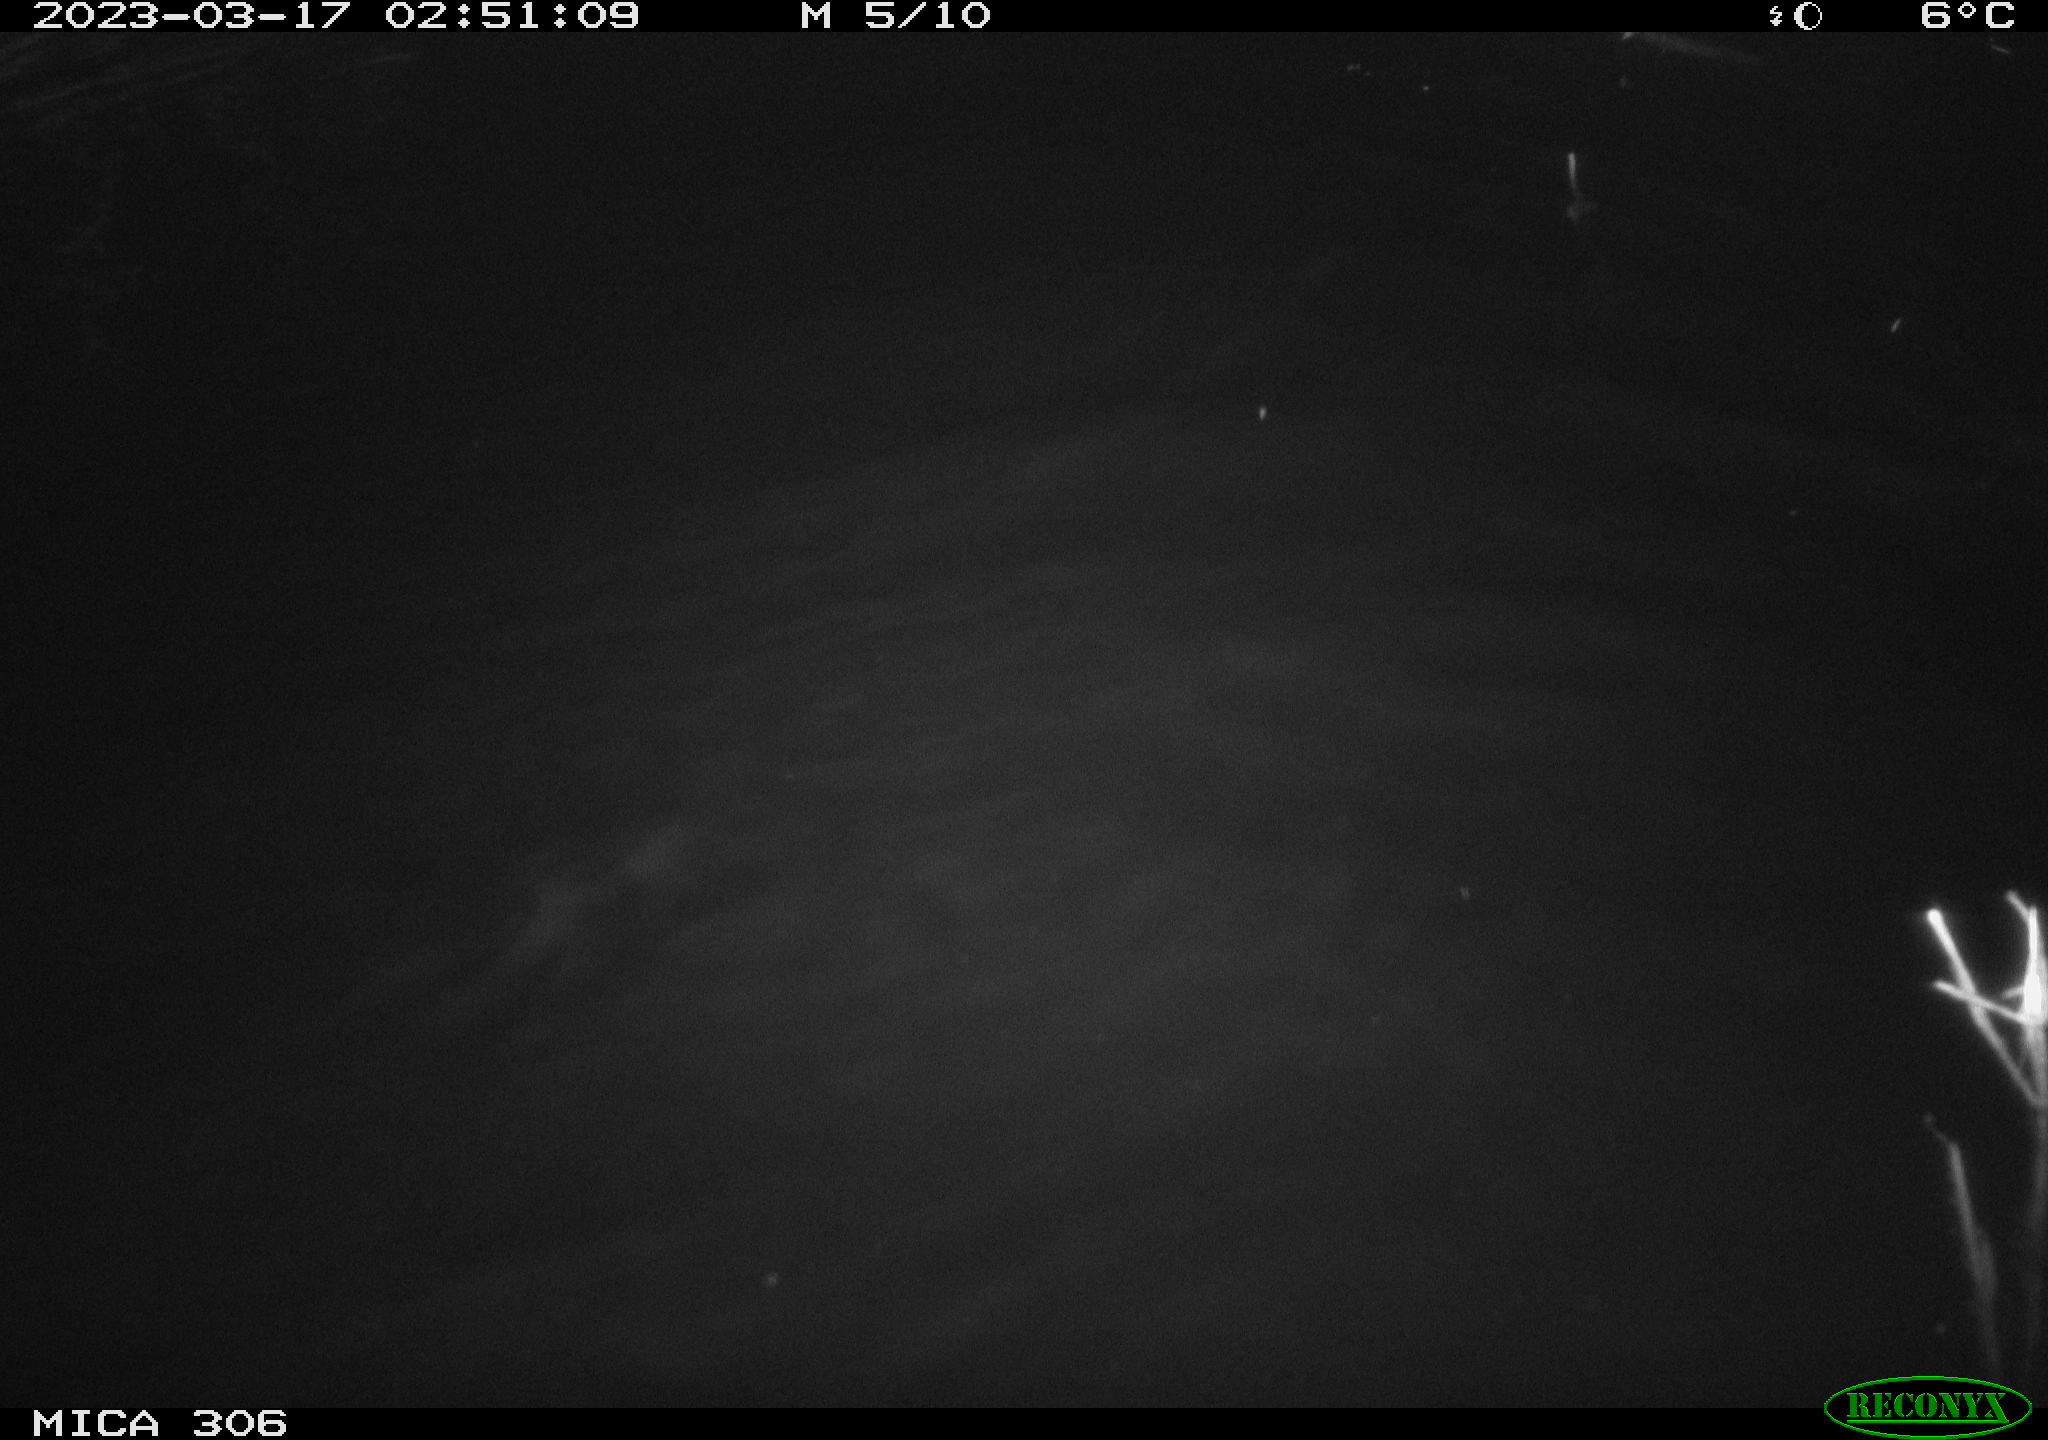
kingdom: Animalia
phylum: Chordata
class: Mammalia
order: Rodentia
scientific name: Rodentia
